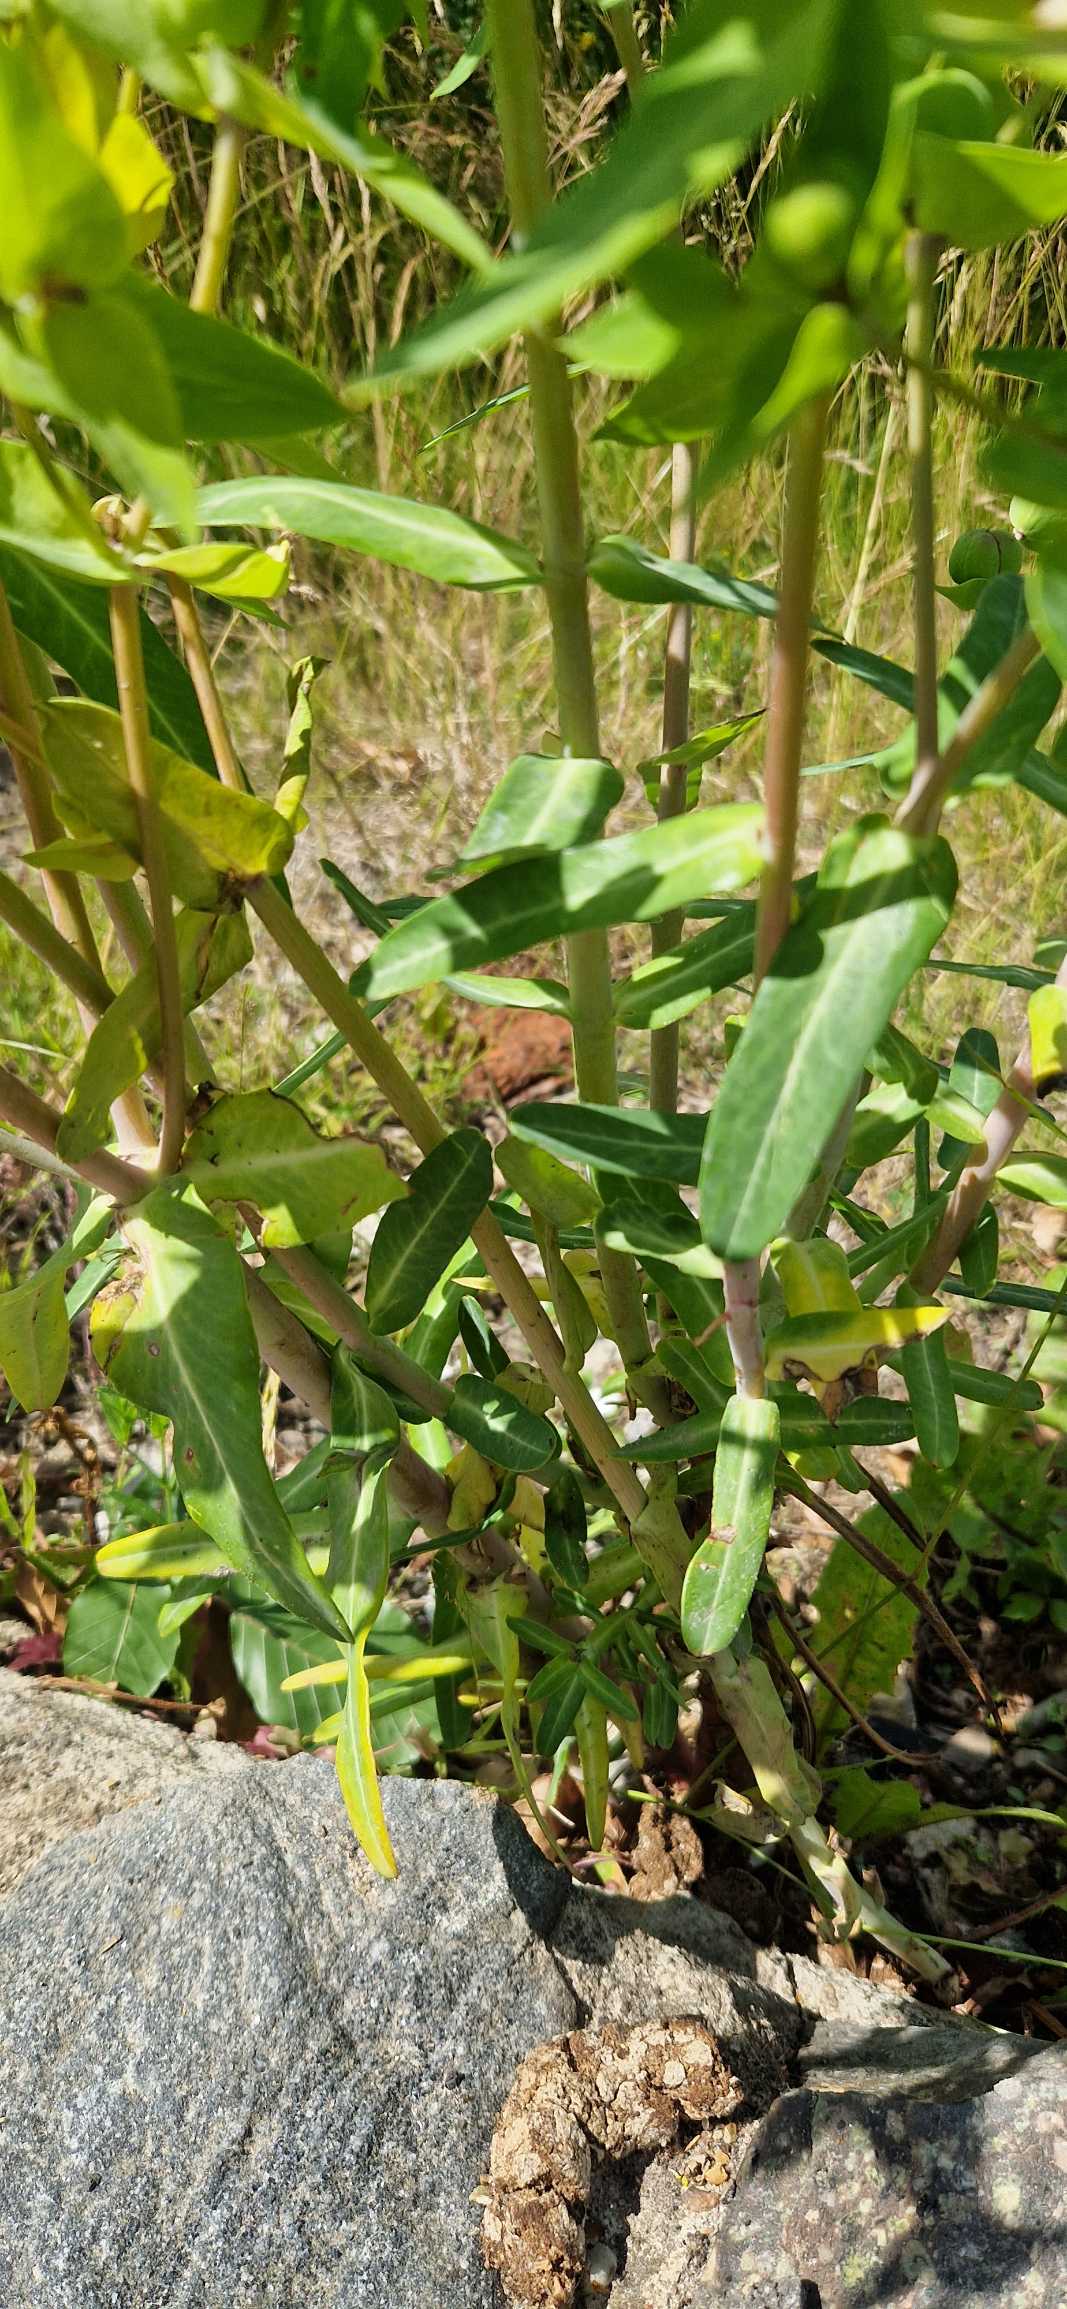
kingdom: Plantae
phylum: Tracheophyta
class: Magnoliopsida
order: Malpighiales
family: Euphorbiaceae
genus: Euphorbia
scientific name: Euphorbia lathyris
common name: Kors-vortemælk
